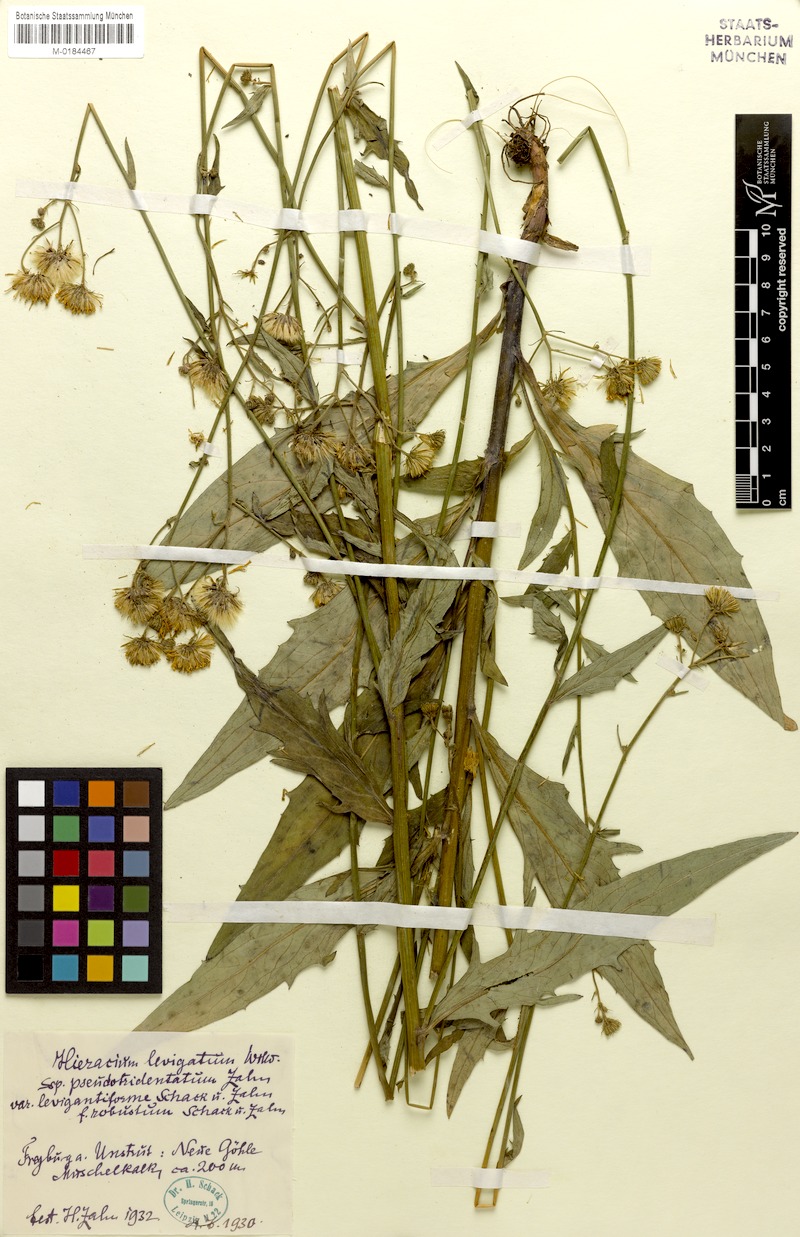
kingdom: Plantae
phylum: Tracheophyta
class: Magnoliopsida
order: Asterales
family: Asteraceae
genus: Hieracium
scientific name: Hieracium laevigatum
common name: Smooth hawkweed
